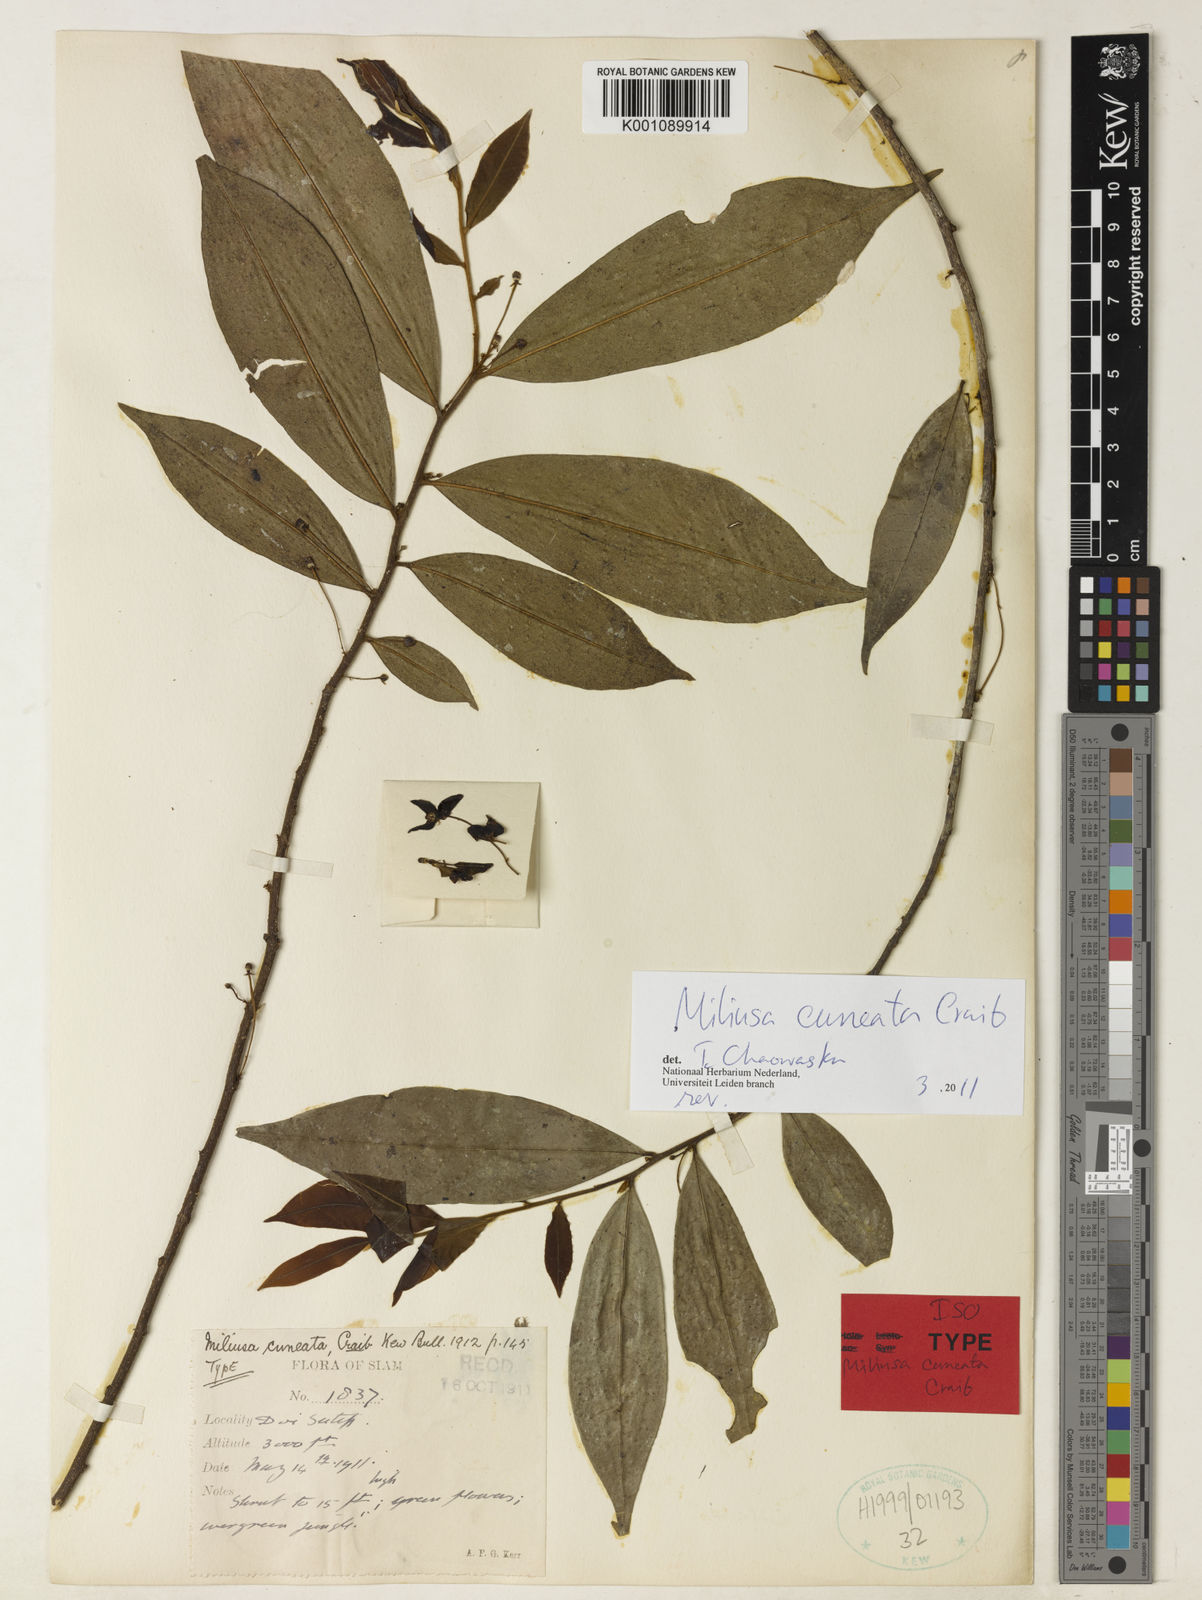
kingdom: Plantae
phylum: Tracheophyta
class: Magnoliopsida
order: Magnoliales
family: Annonaceae
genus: Miliusa
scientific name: Miliusa cuneata
